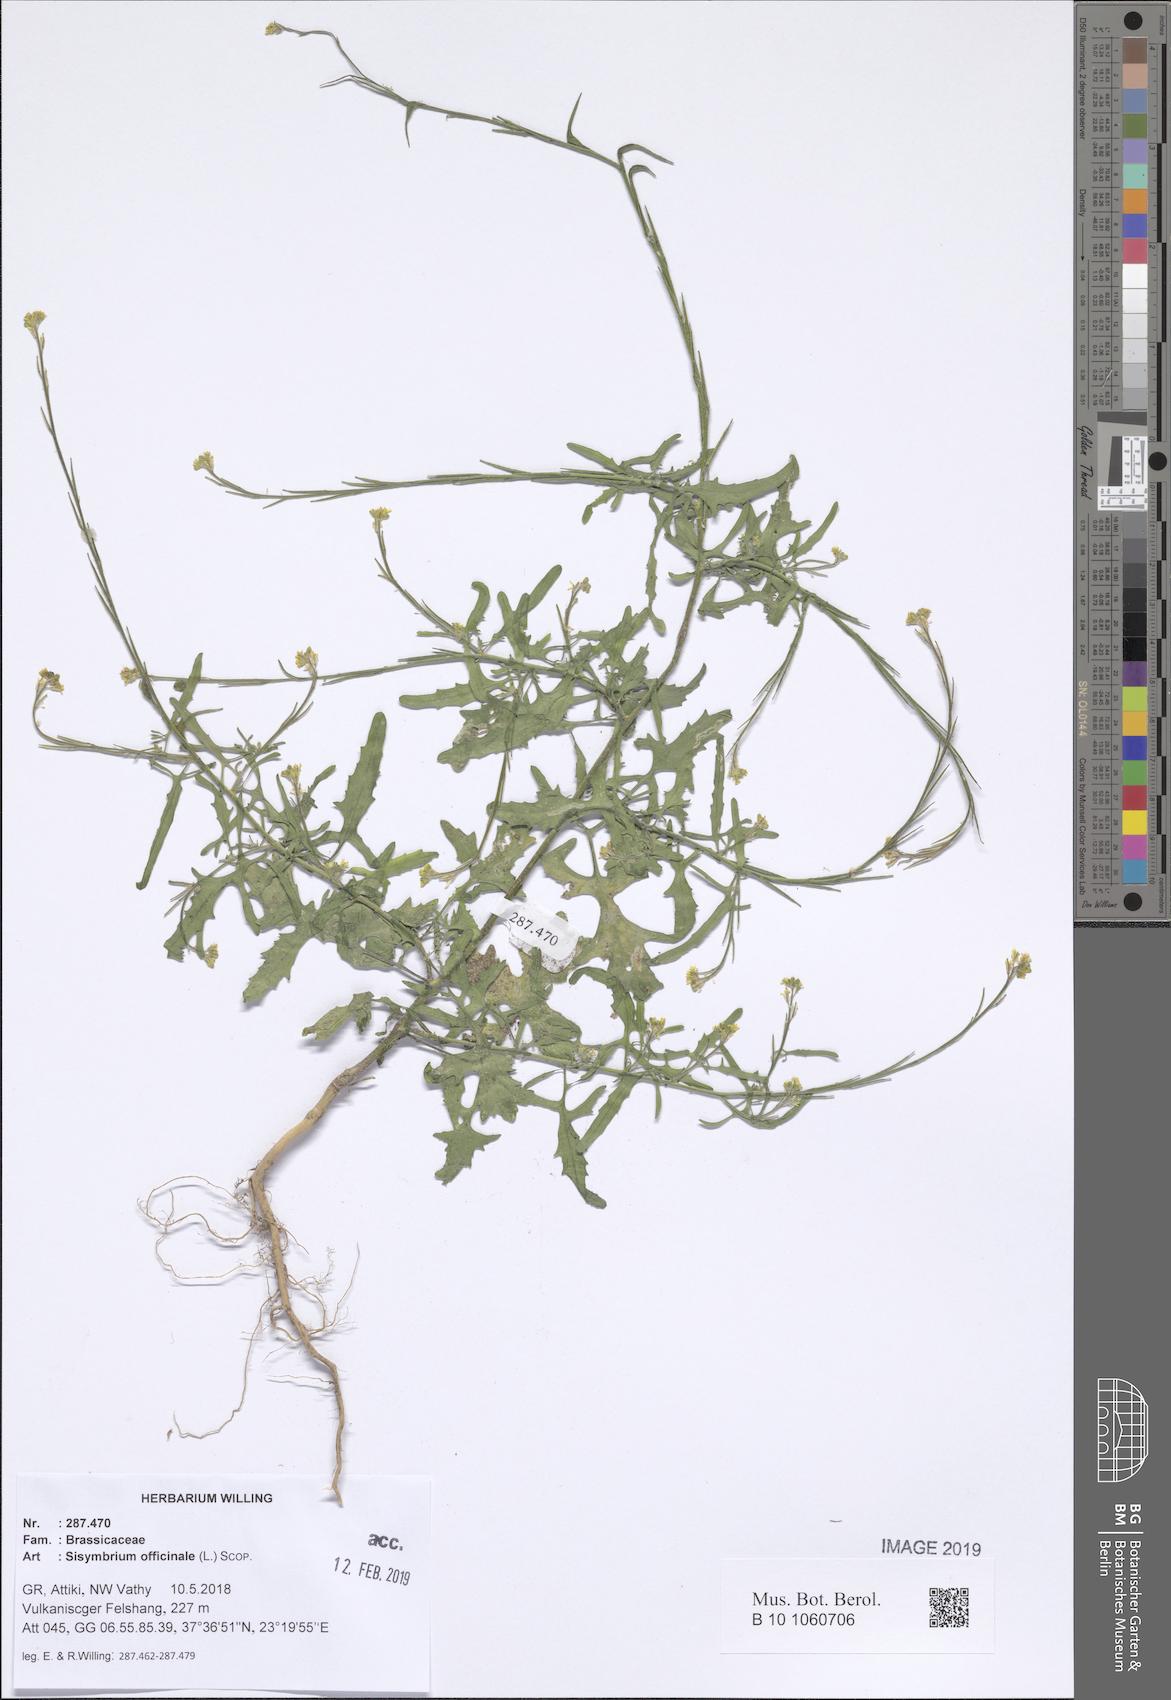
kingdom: Plantae
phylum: Tracheophyta
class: Magnoliopsida
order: Brassicales
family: Brassicaceae
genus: Sisymbrium
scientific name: Sisymbrium officinale
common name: Hedge mustard
